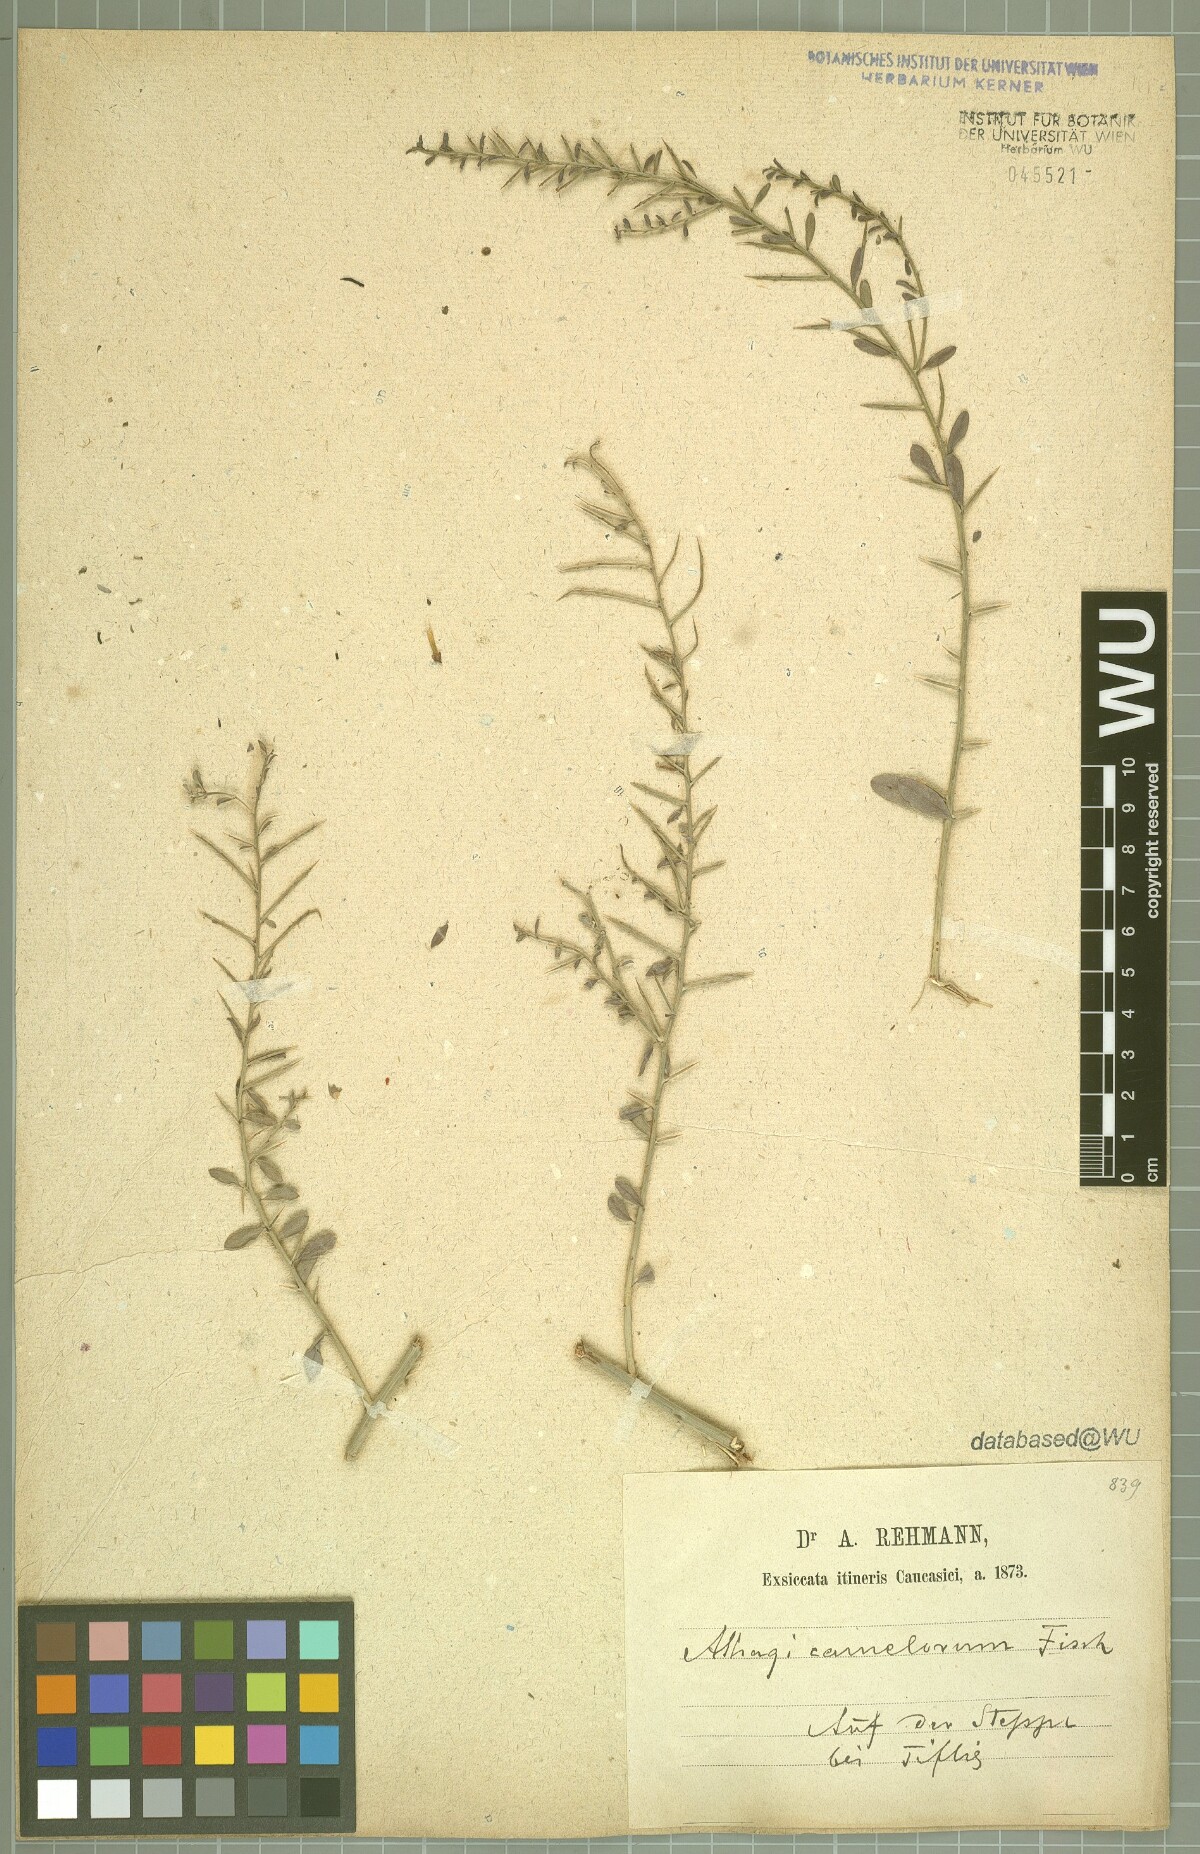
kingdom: Plantae
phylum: Tracheophyta
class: Magnoliopsida
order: Fabales
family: Fabaceae
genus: Alhagi
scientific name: Alhagi maurorum
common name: Camelthorn
